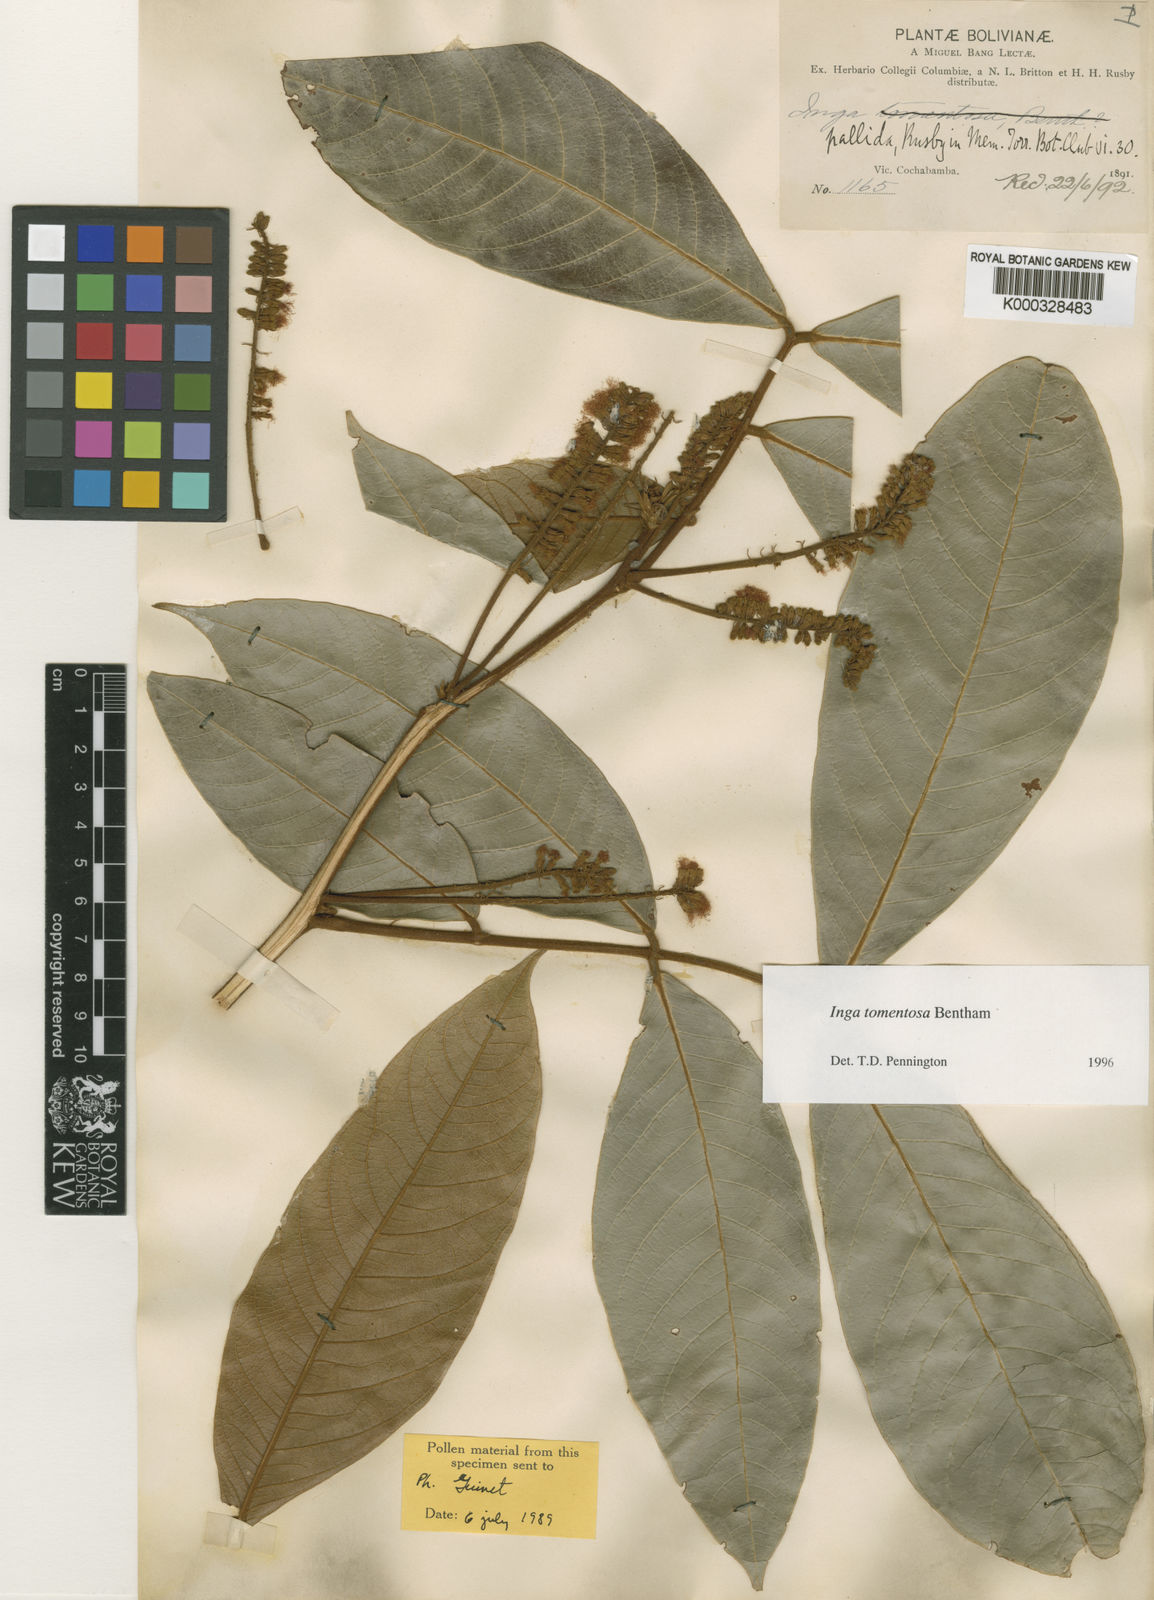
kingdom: Plantae
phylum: Tracheophyta
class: Magnoliopsida
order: Fabales
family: Fabaceae
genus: Inga
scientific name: Inga tomentosa
